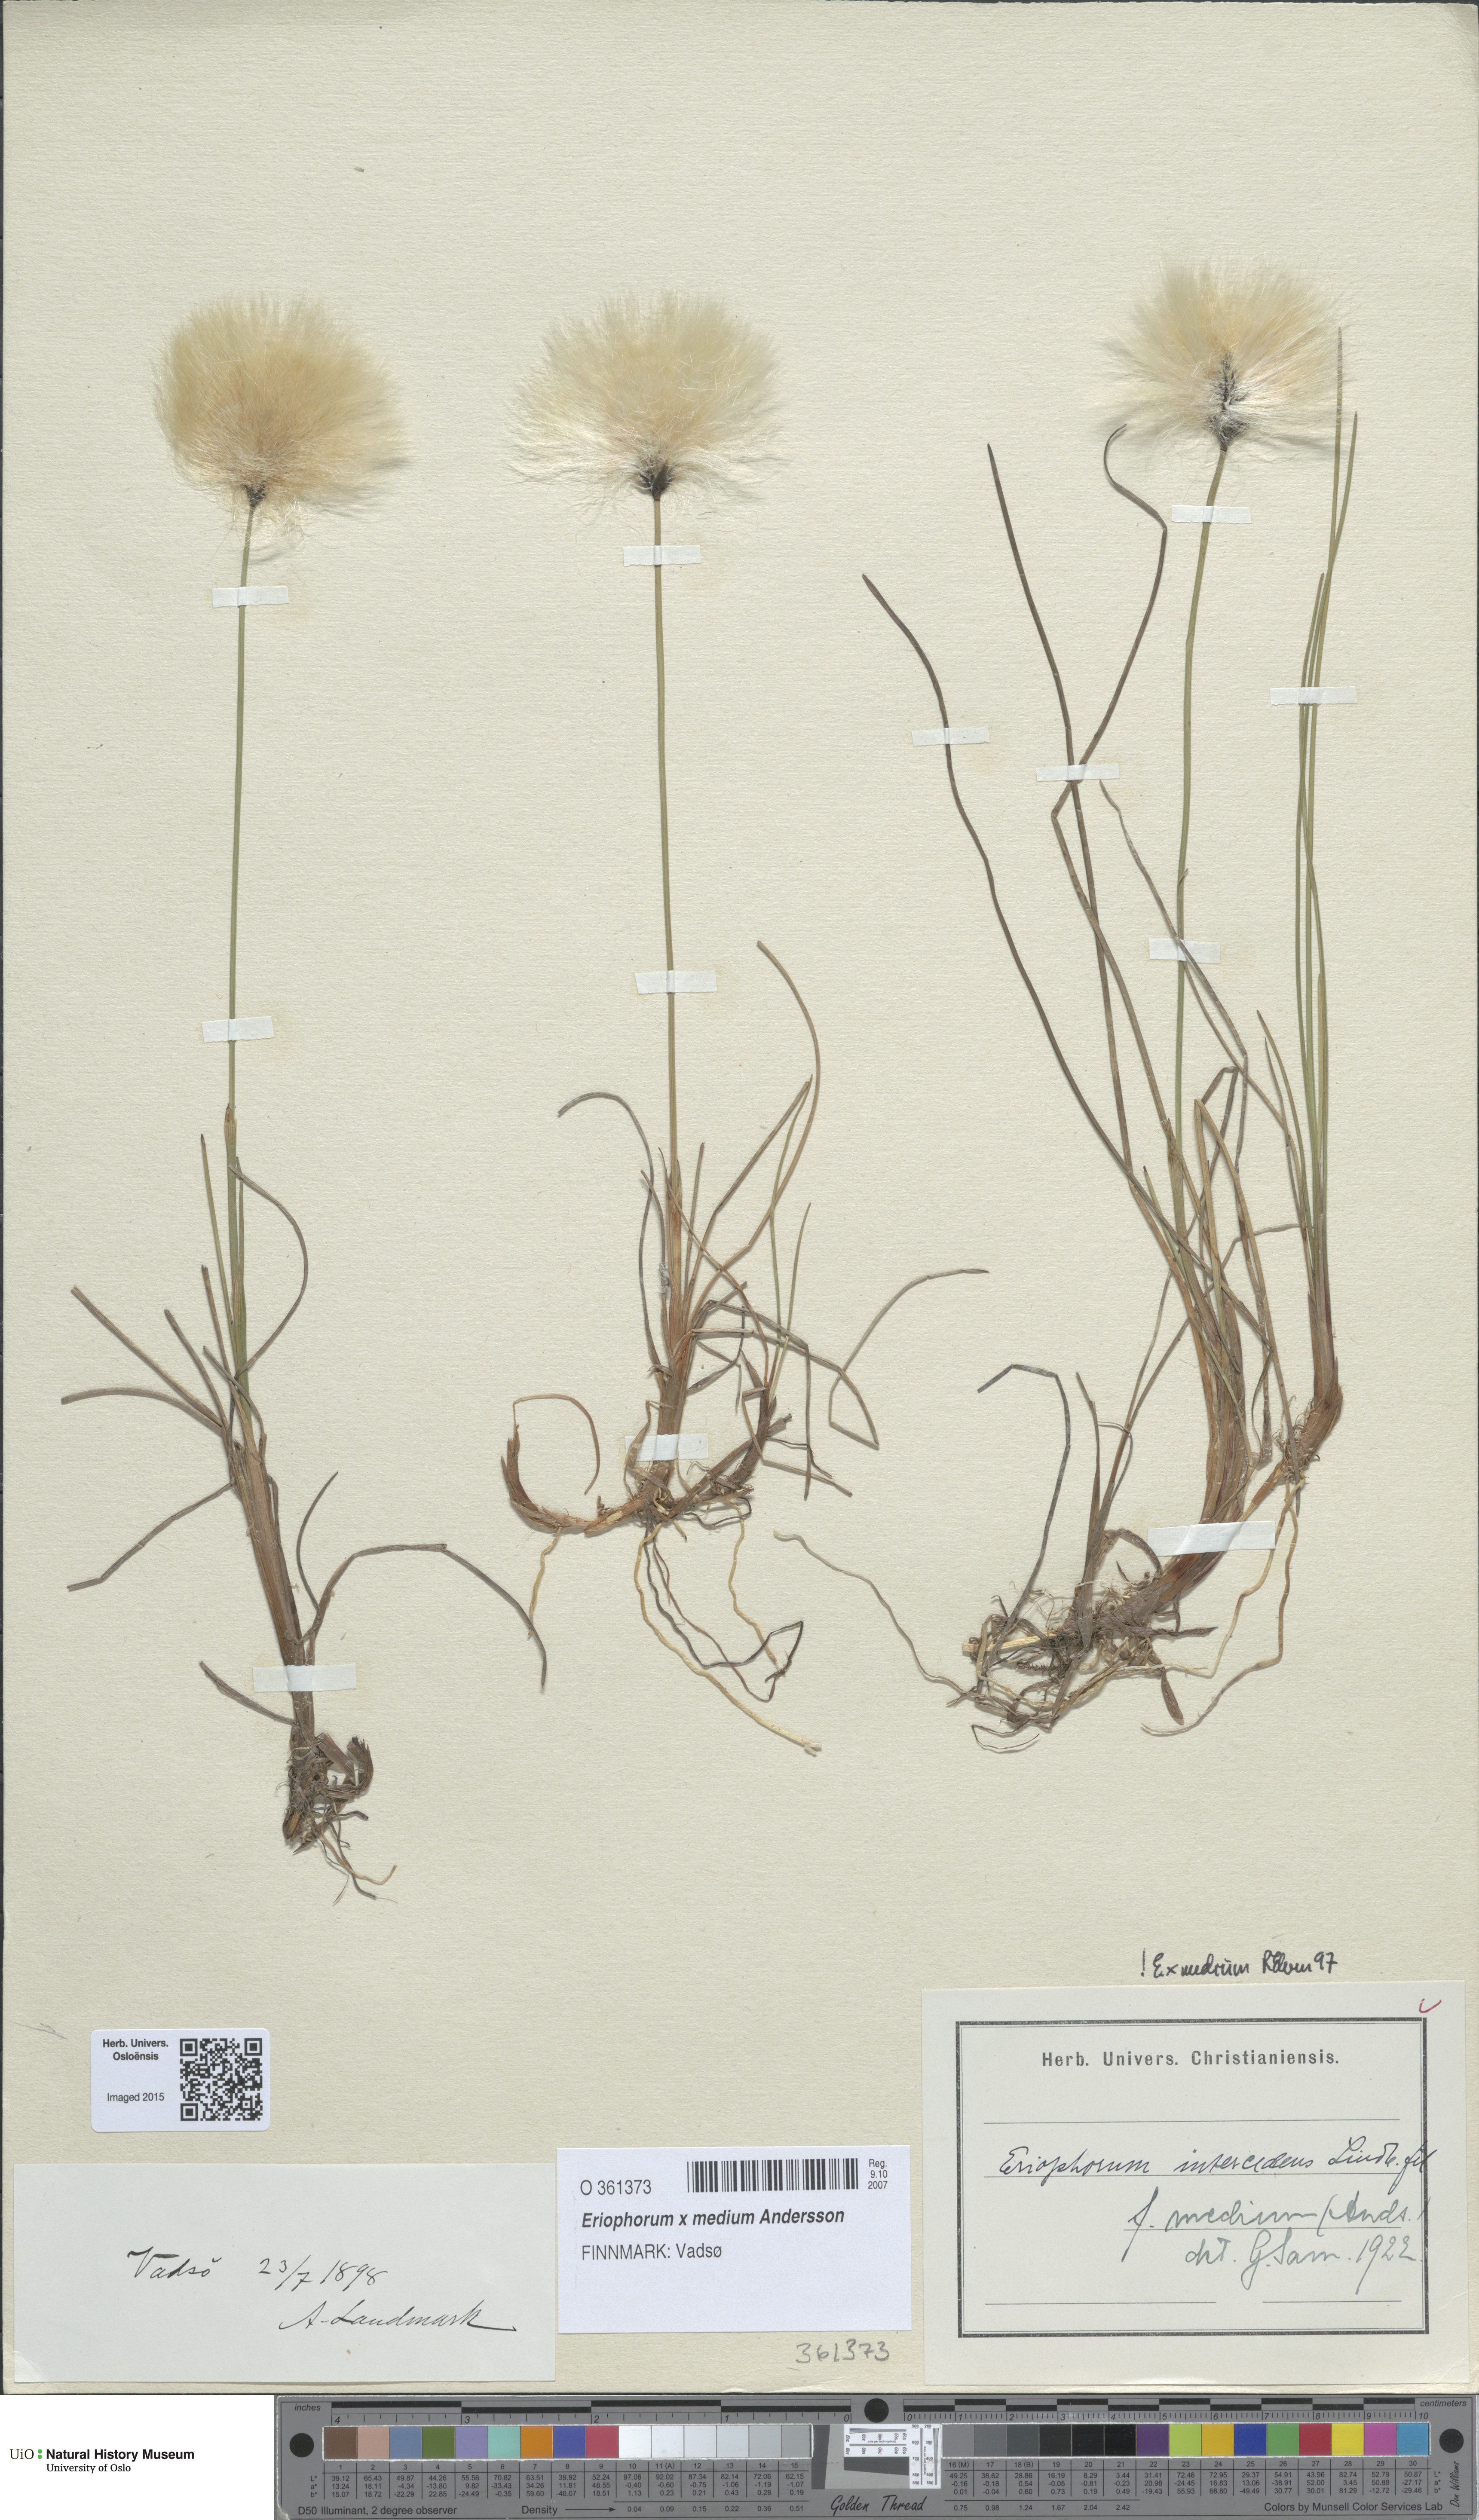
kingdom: Plantae
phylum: Tracheophyta
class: Liliopsida
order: Poales
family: Cyperaceae
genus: Eriophorum
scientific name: Eriophorum medium
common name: Intermediate cottongrass
